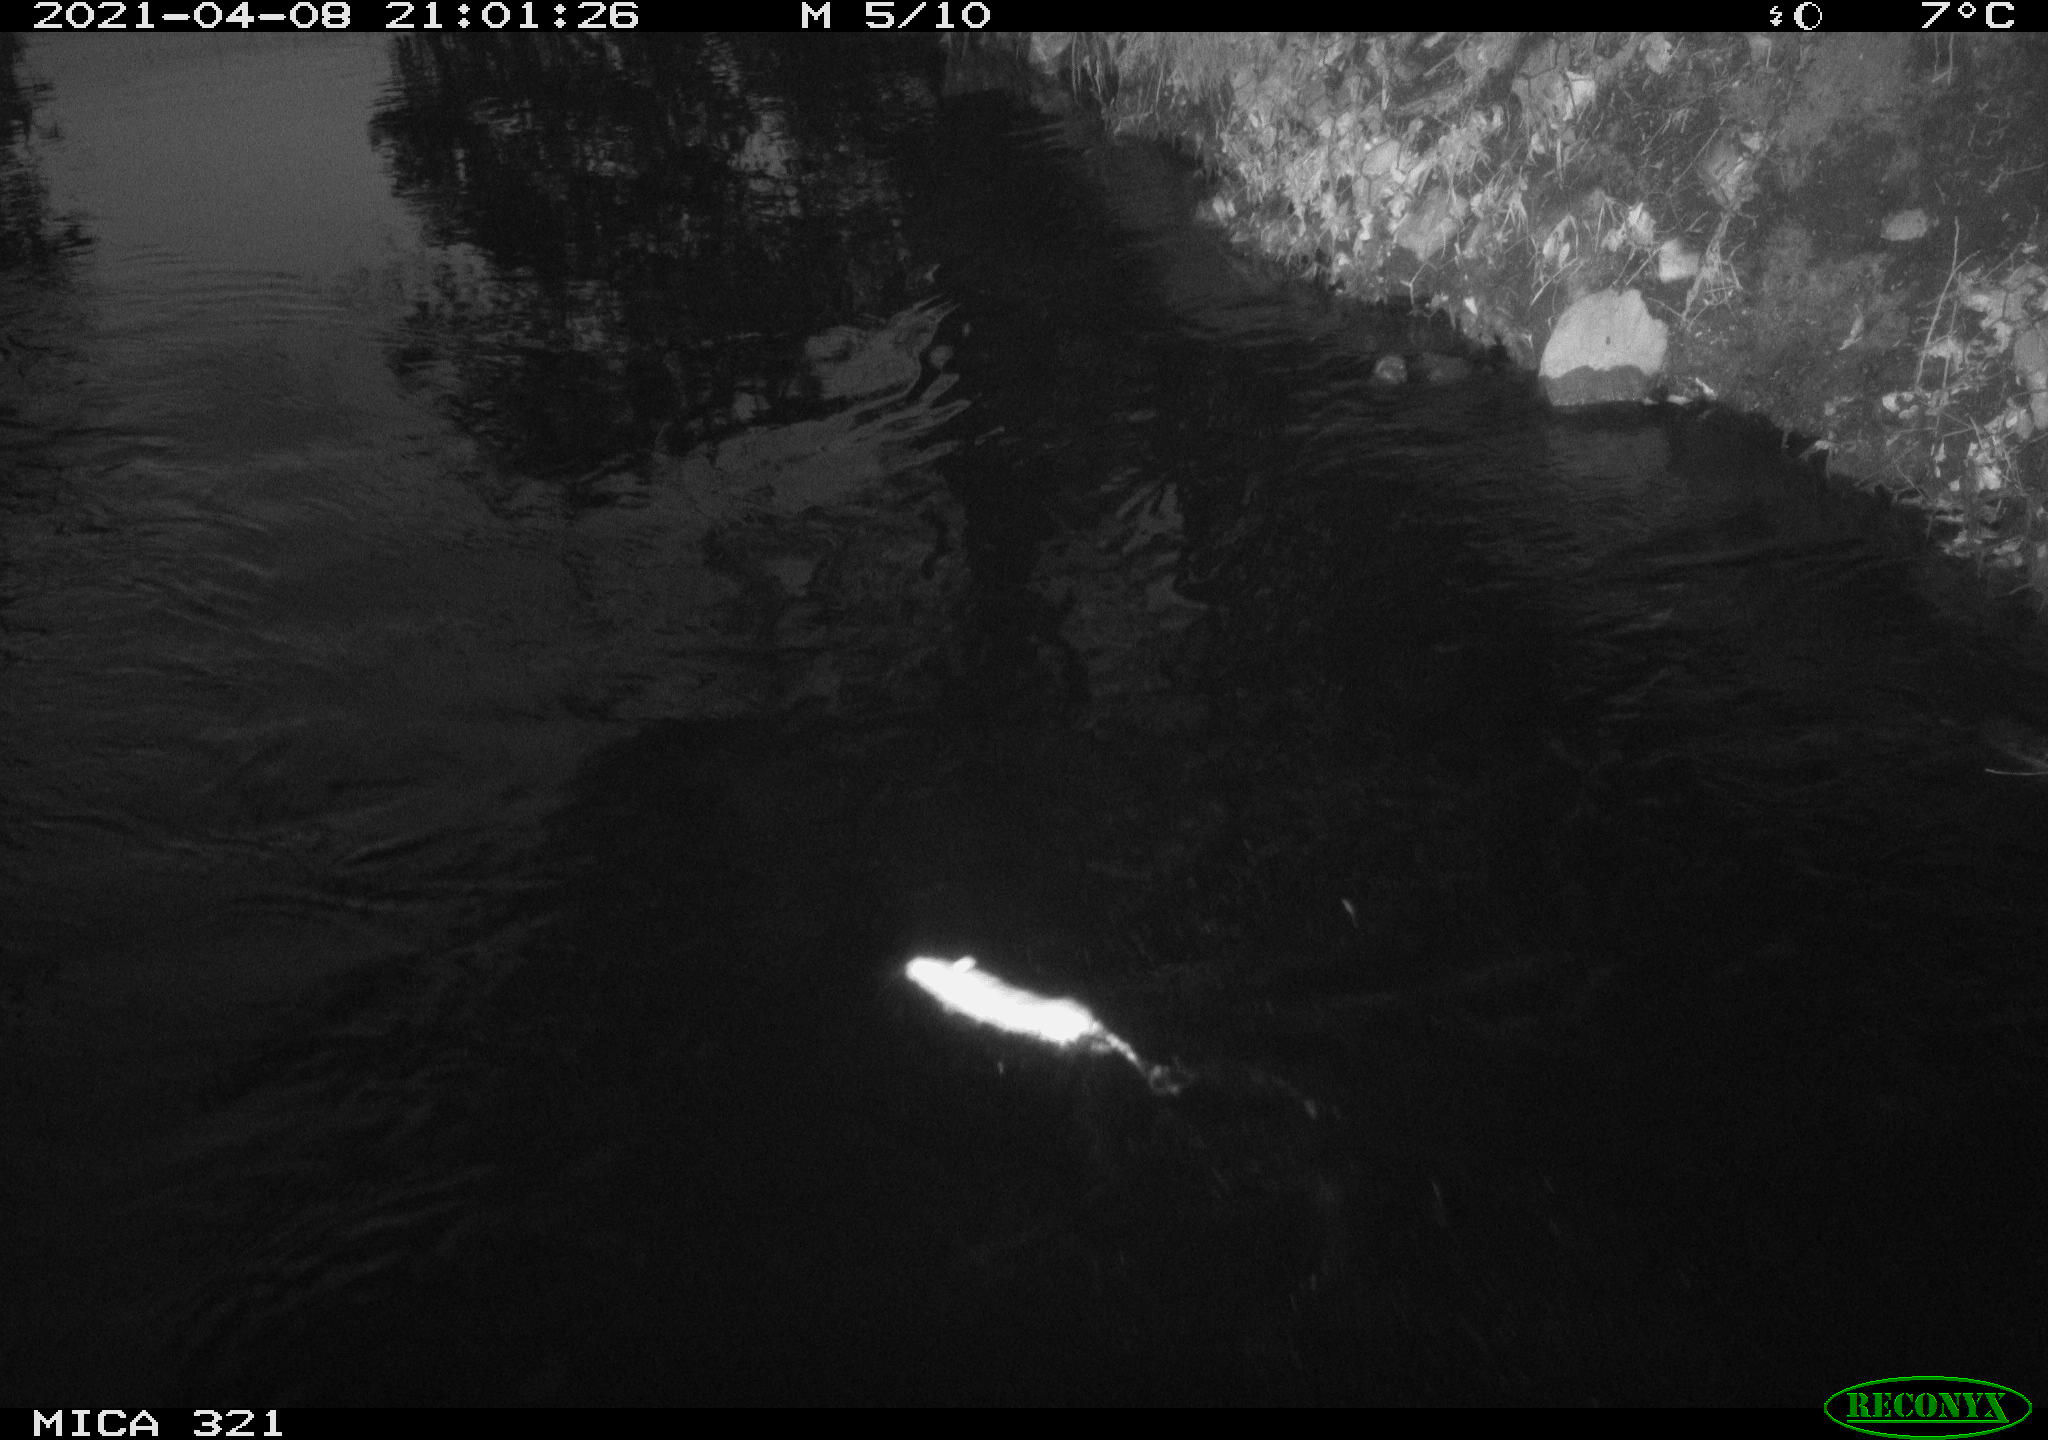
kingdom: Animalia
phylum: Chordata
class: Mammalia
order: Rodentia
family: Muridae
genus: Rattus
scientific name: Rattus norvegicus
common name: Brown rat
